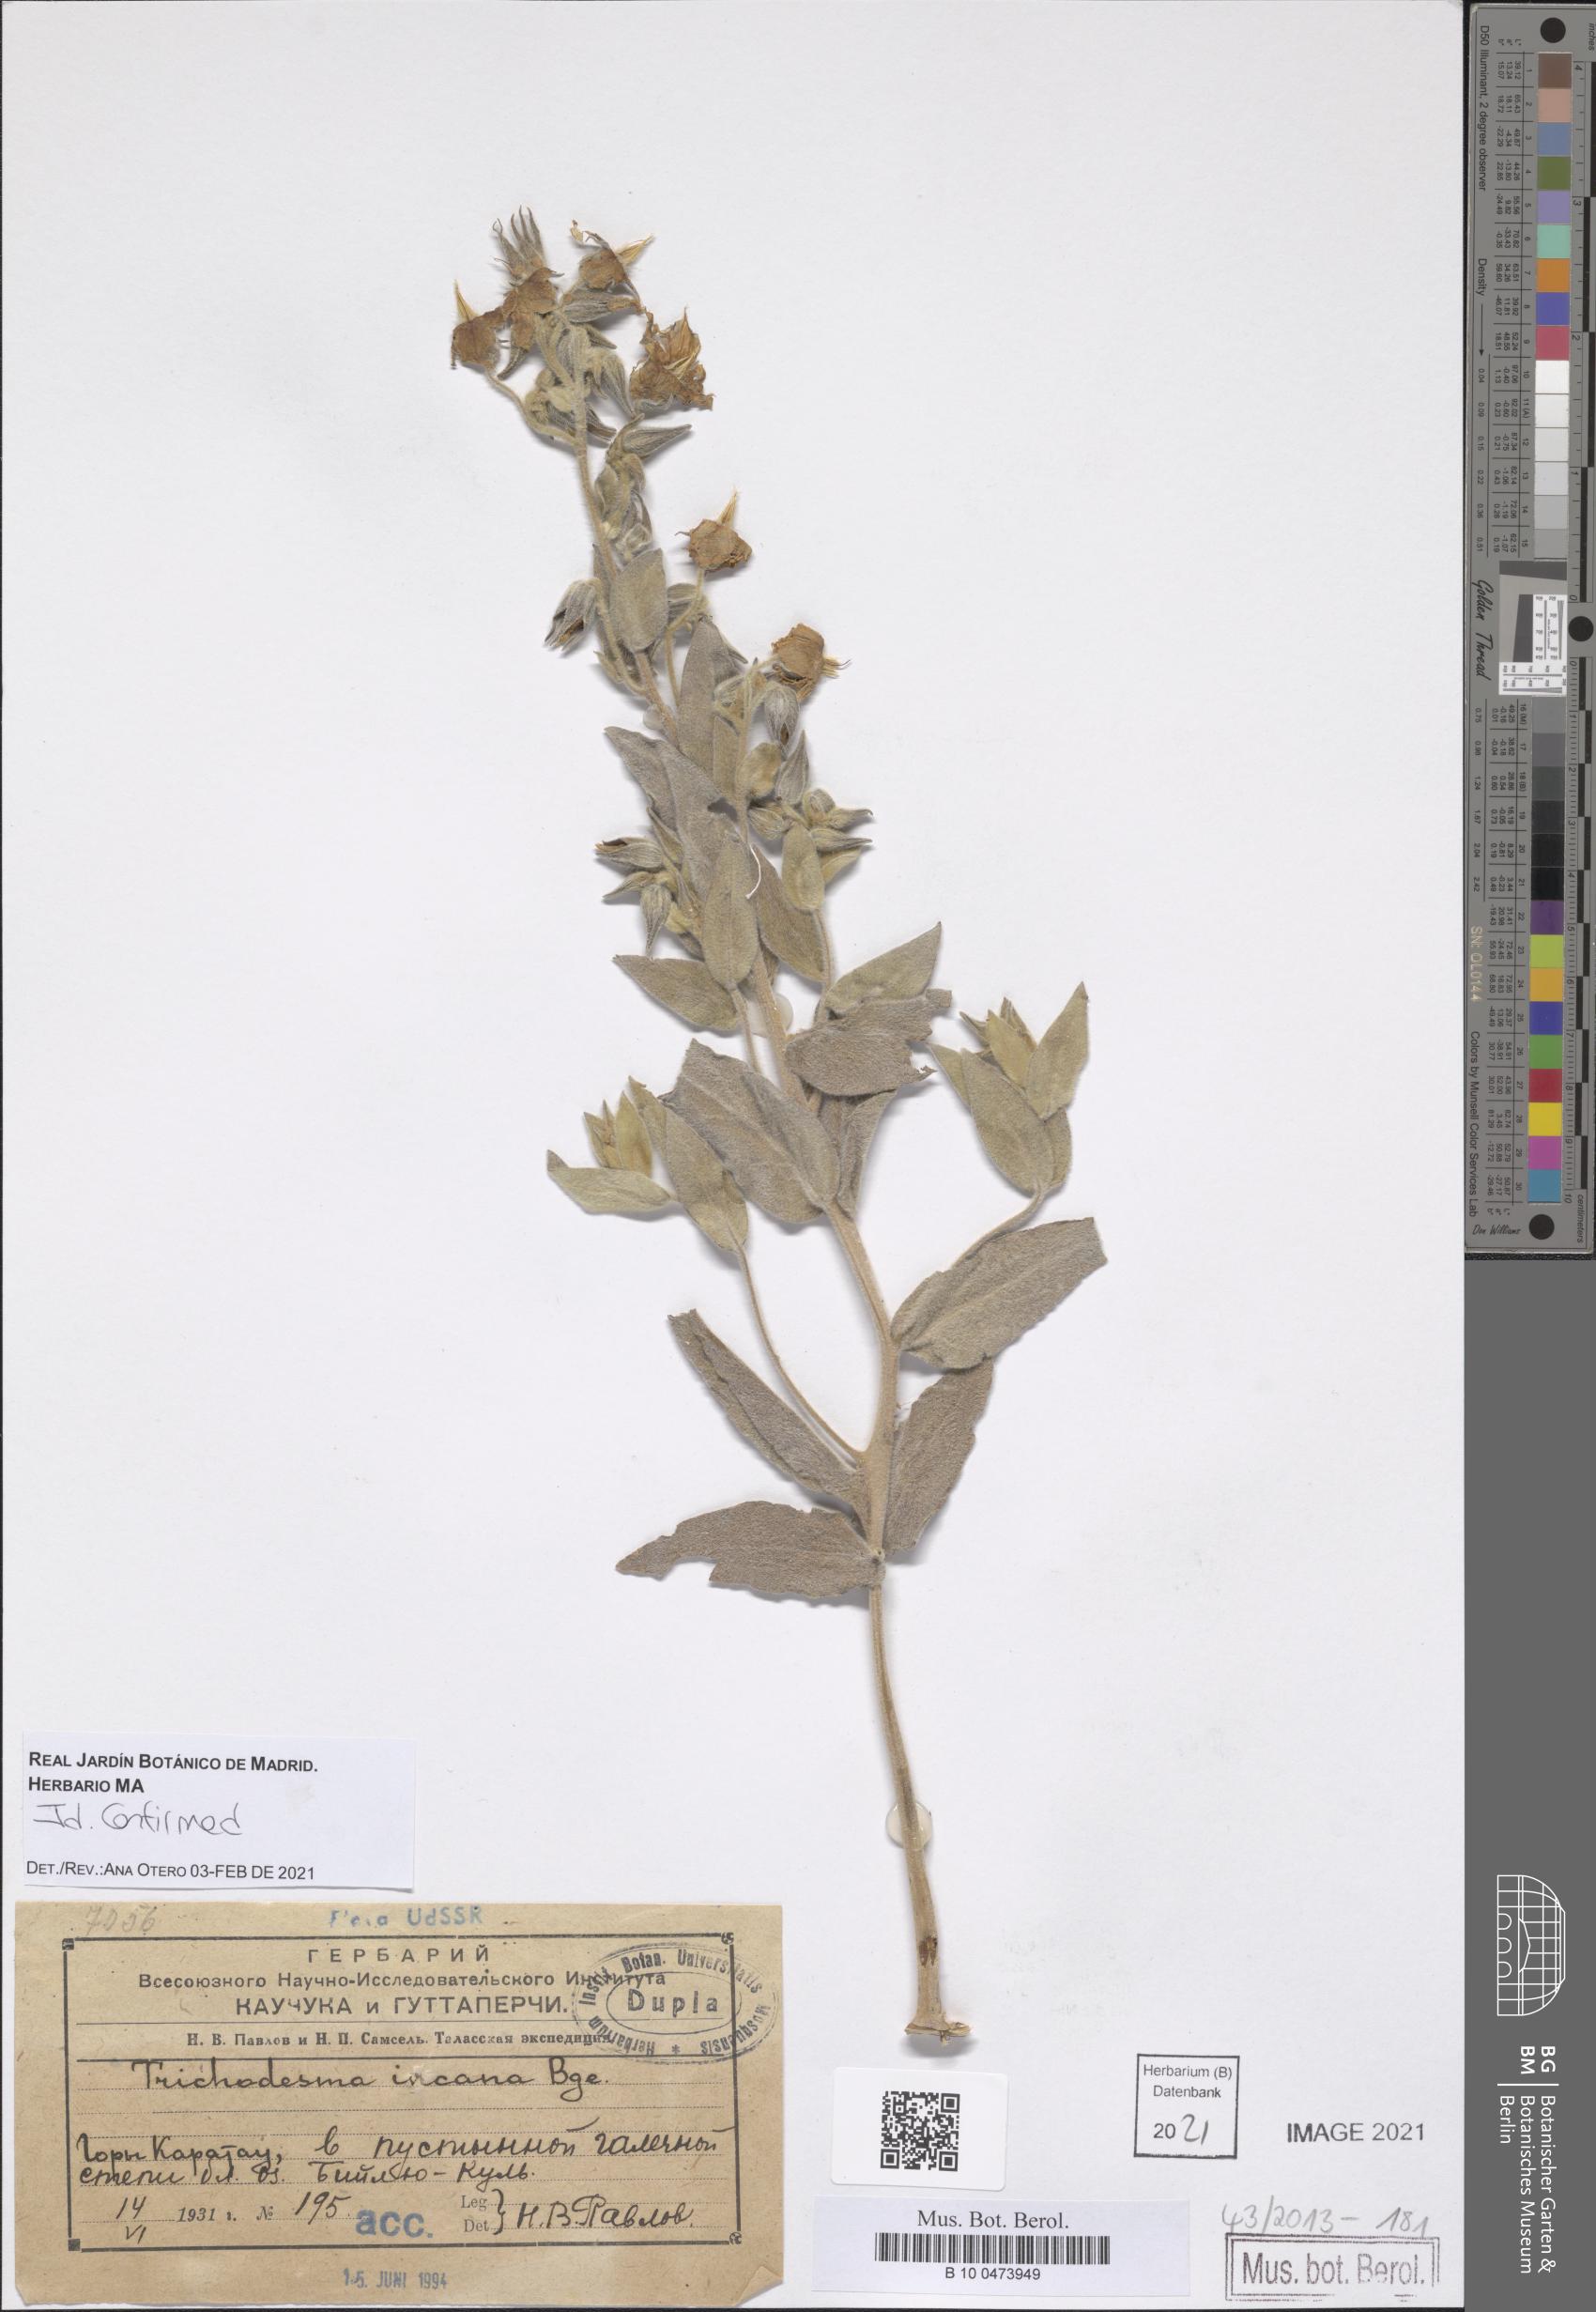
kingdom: Plantae
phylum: Tracheophyta
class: Magnoliopsida
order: Boraginales
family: Boraginaceae
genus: Trichodesma
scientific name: Trichodesma incanum
